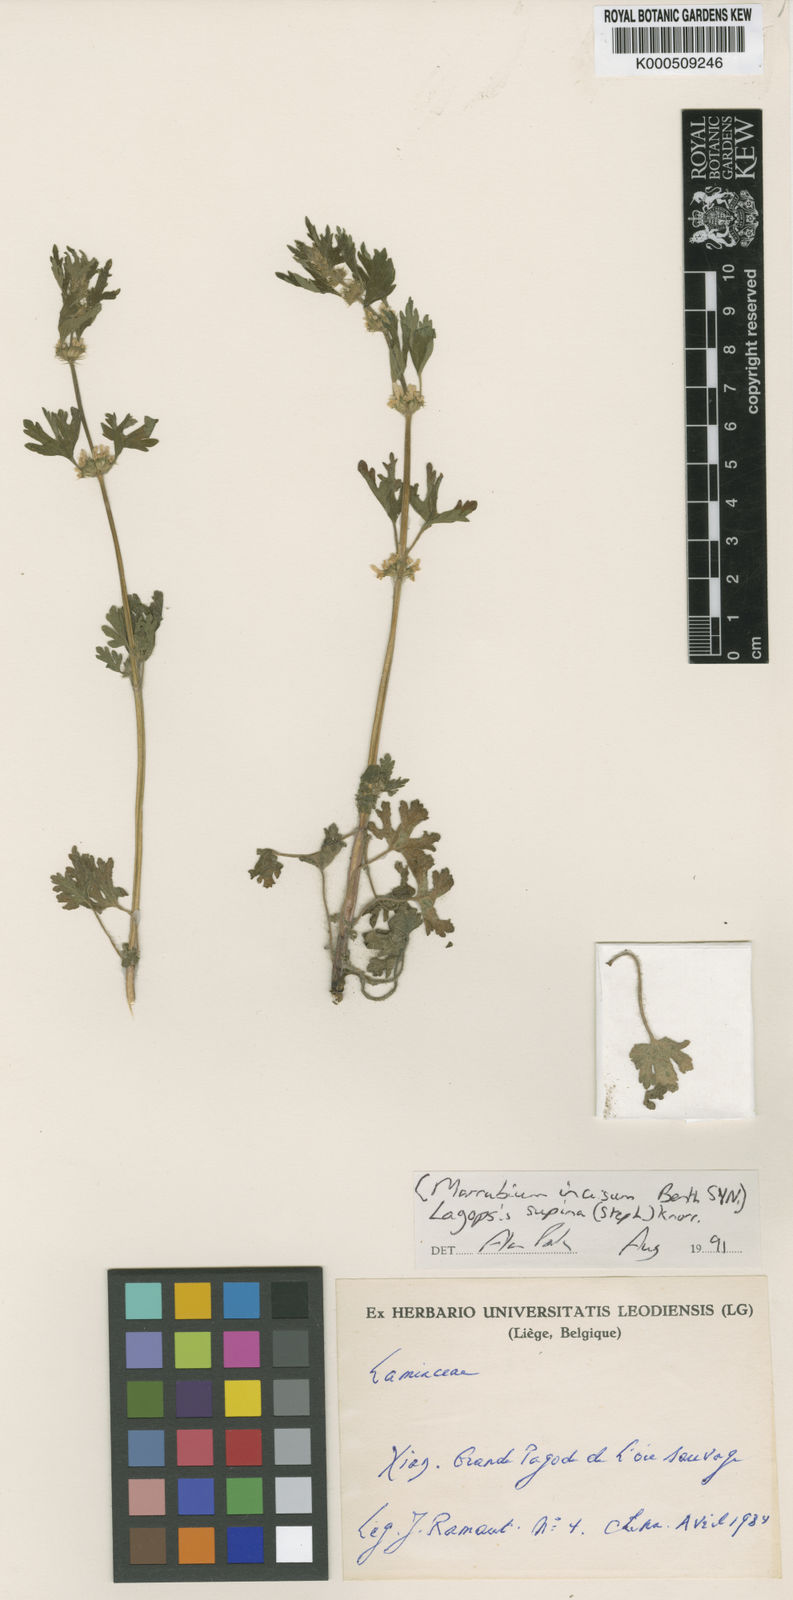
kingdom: Plantae
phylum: Tracheophyta
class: Magnoliopsida
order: Lamiales
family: Lamiaceae
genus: Lagopsis
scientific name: Lagopsis supina
